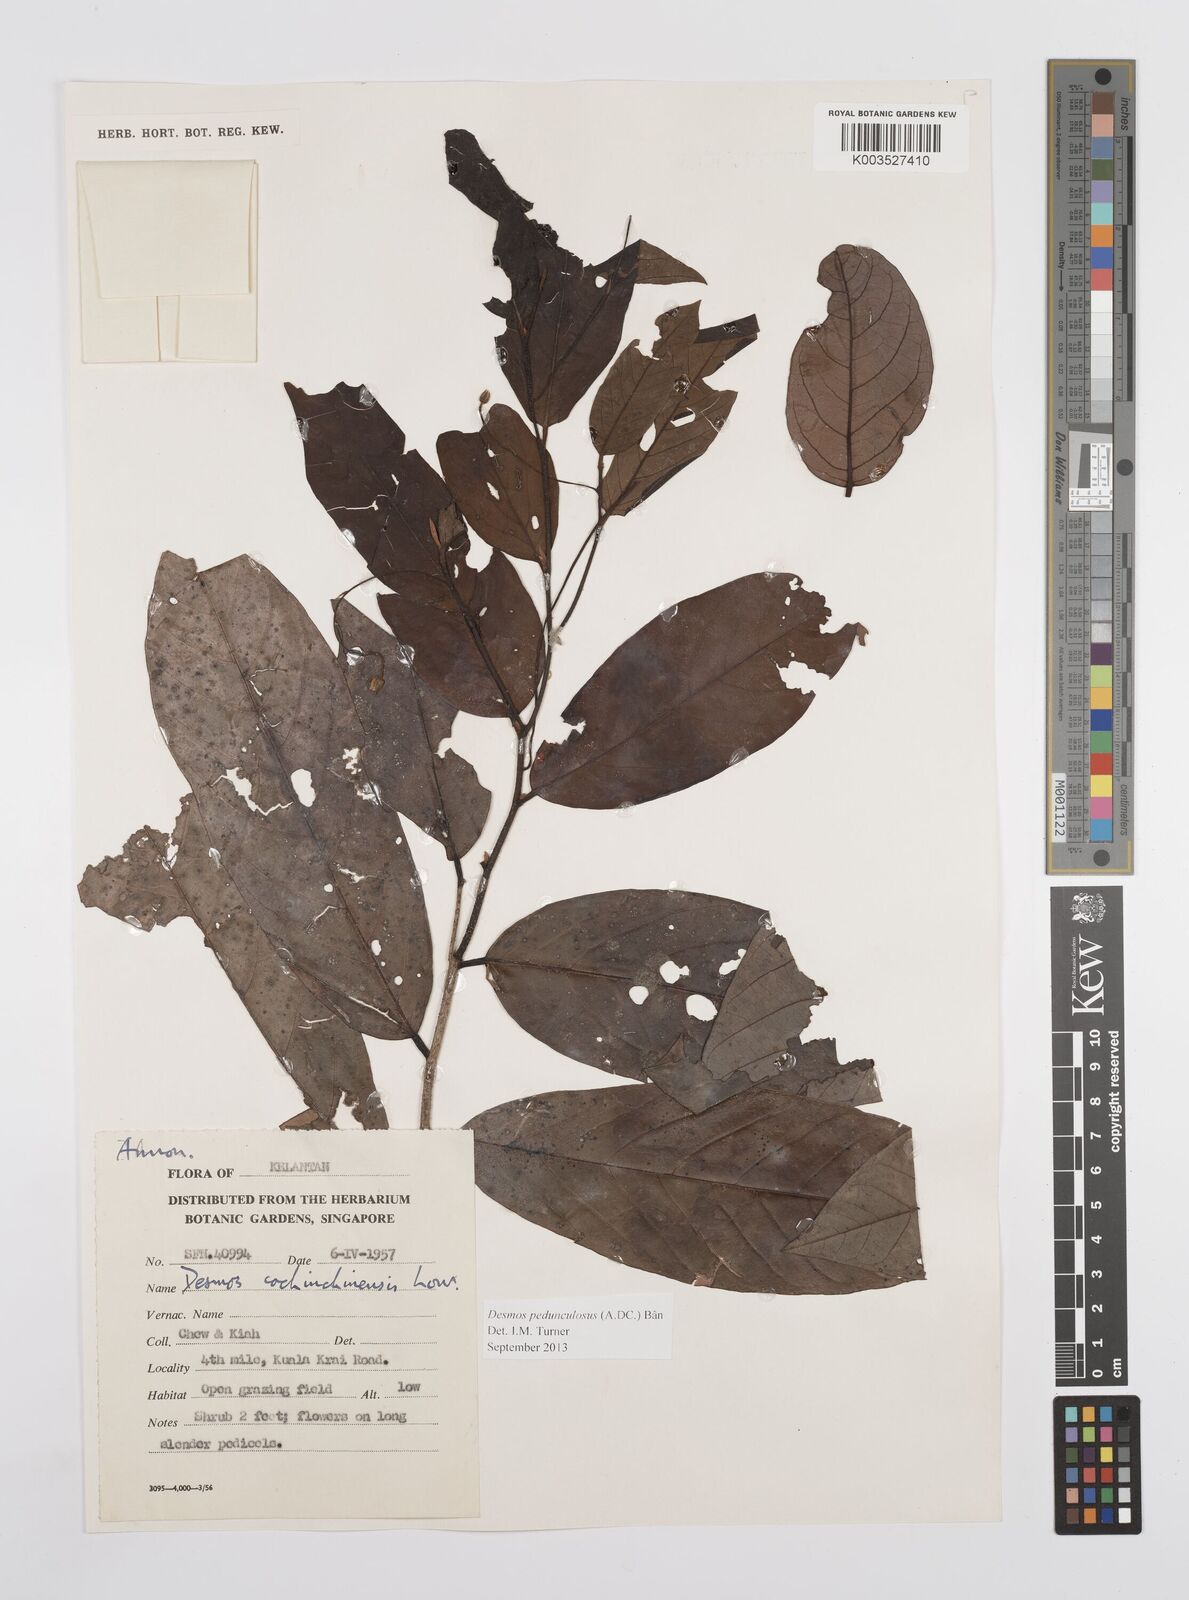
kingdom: Plantae
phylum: Tracheophyta
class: Magnoliopsida
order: Magnoliales
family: Annonaceae
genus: Desmos
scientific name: Desmos cochinchinensis
